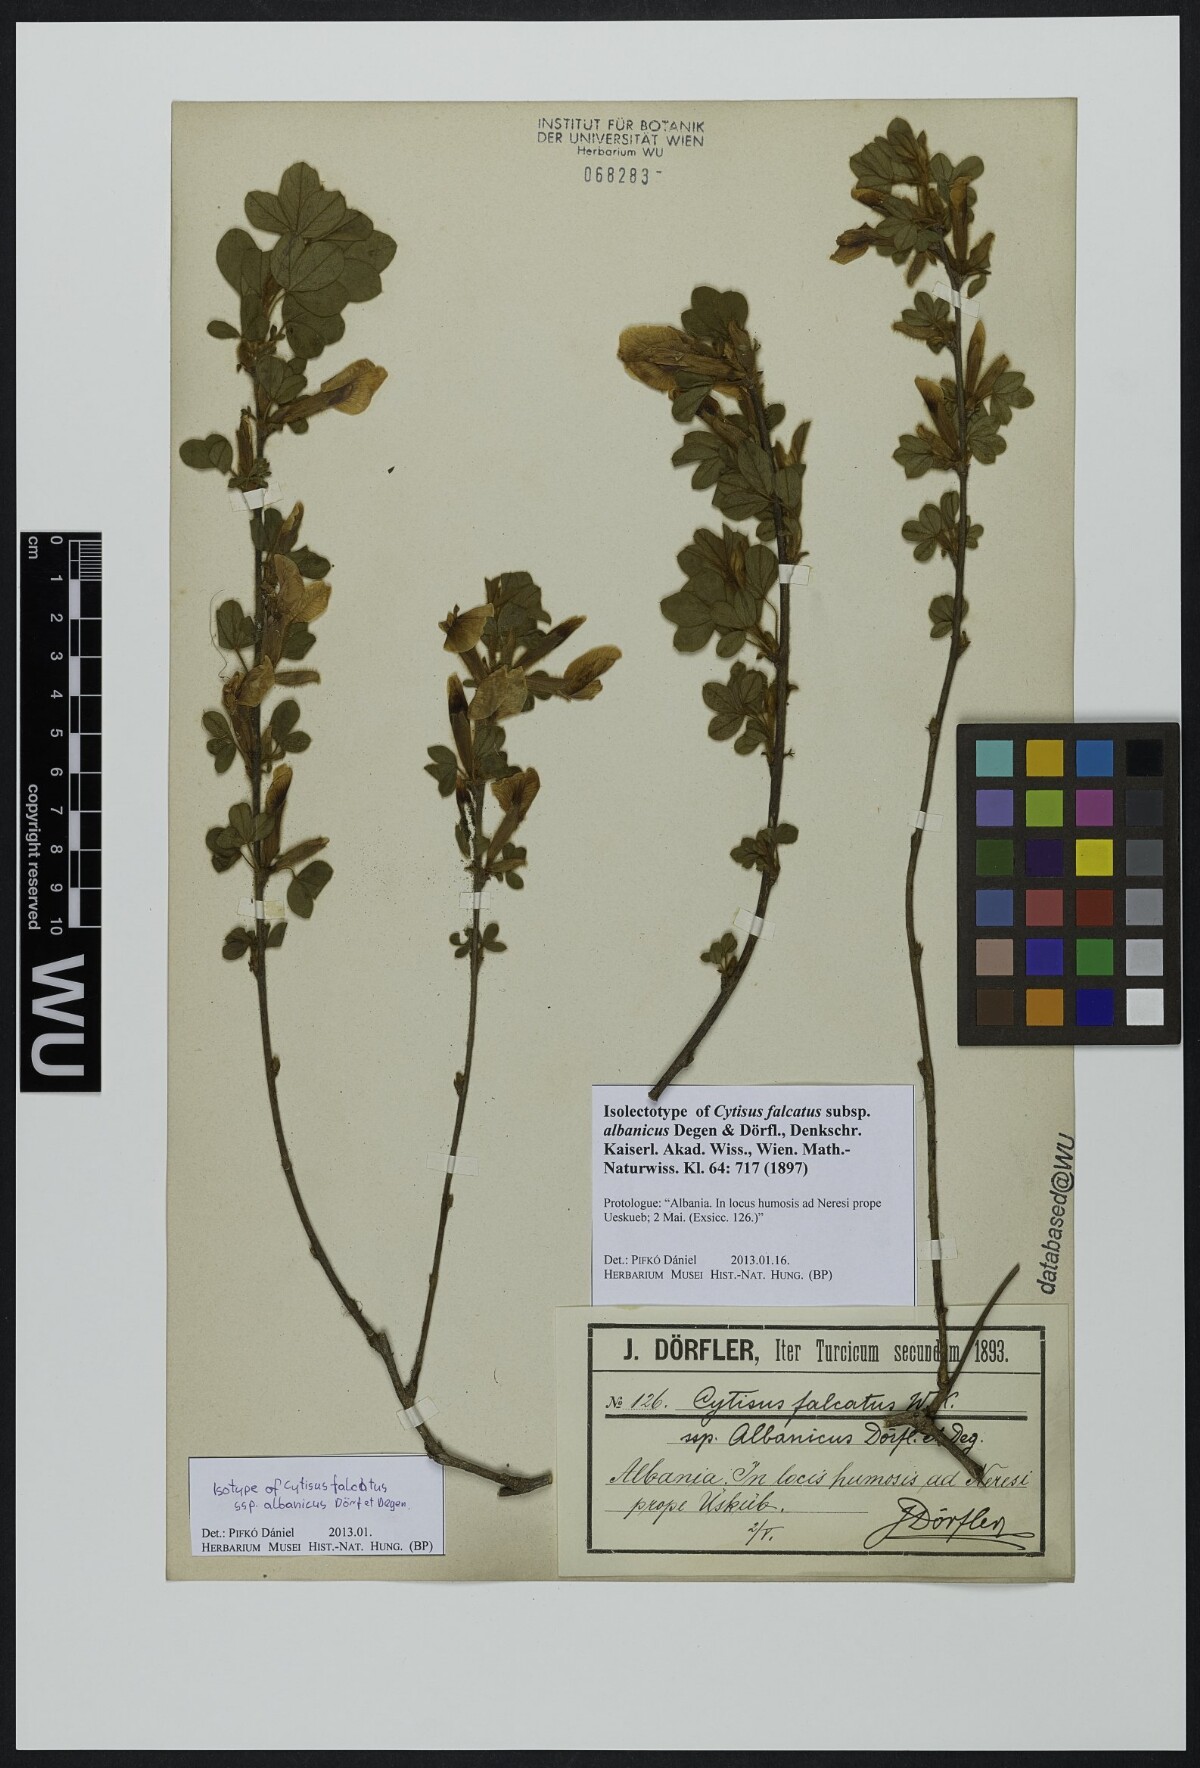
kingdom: Plantae
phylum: Tracheophyta
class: Magnoliopsida
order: Fabales
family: Fabaceae
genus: Chamaecytisus
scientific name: Chamaecytisus triflorus
